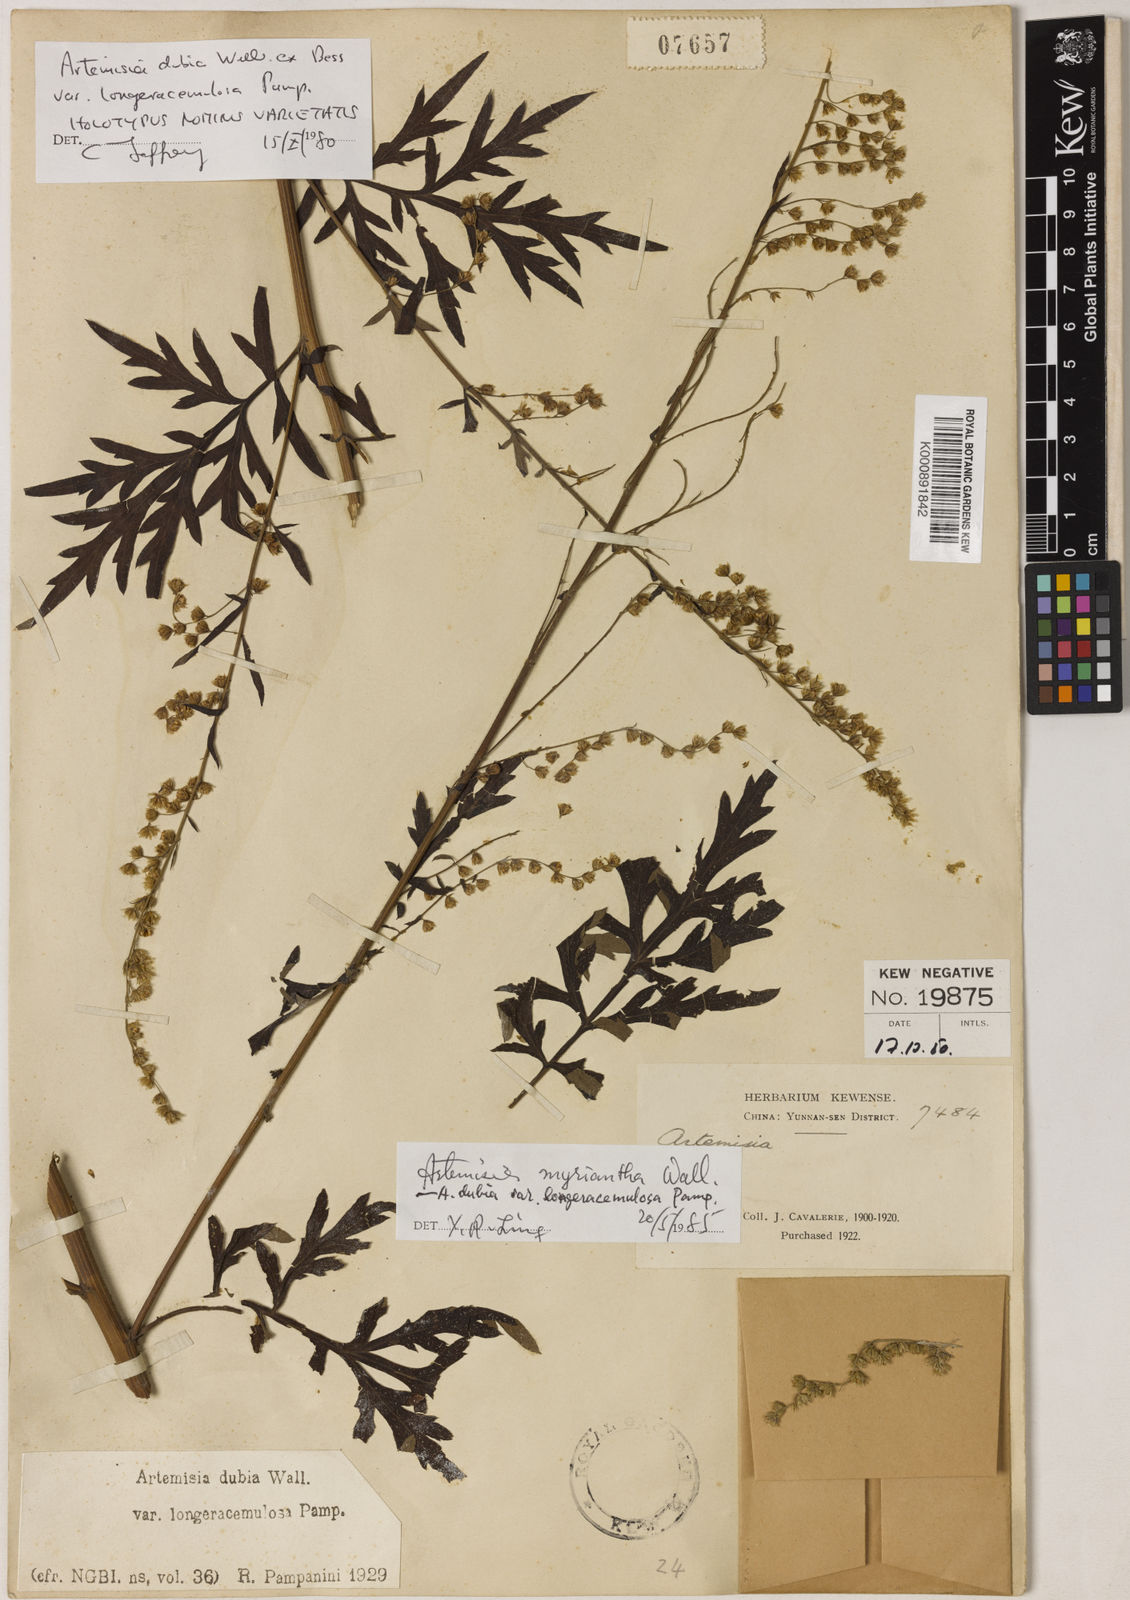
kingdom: Plantae
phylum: Tracheophyta
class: Magnoliopsida
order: Asterales
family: Asteraceae
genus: Artemisia
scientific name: Artemisia myriantha
